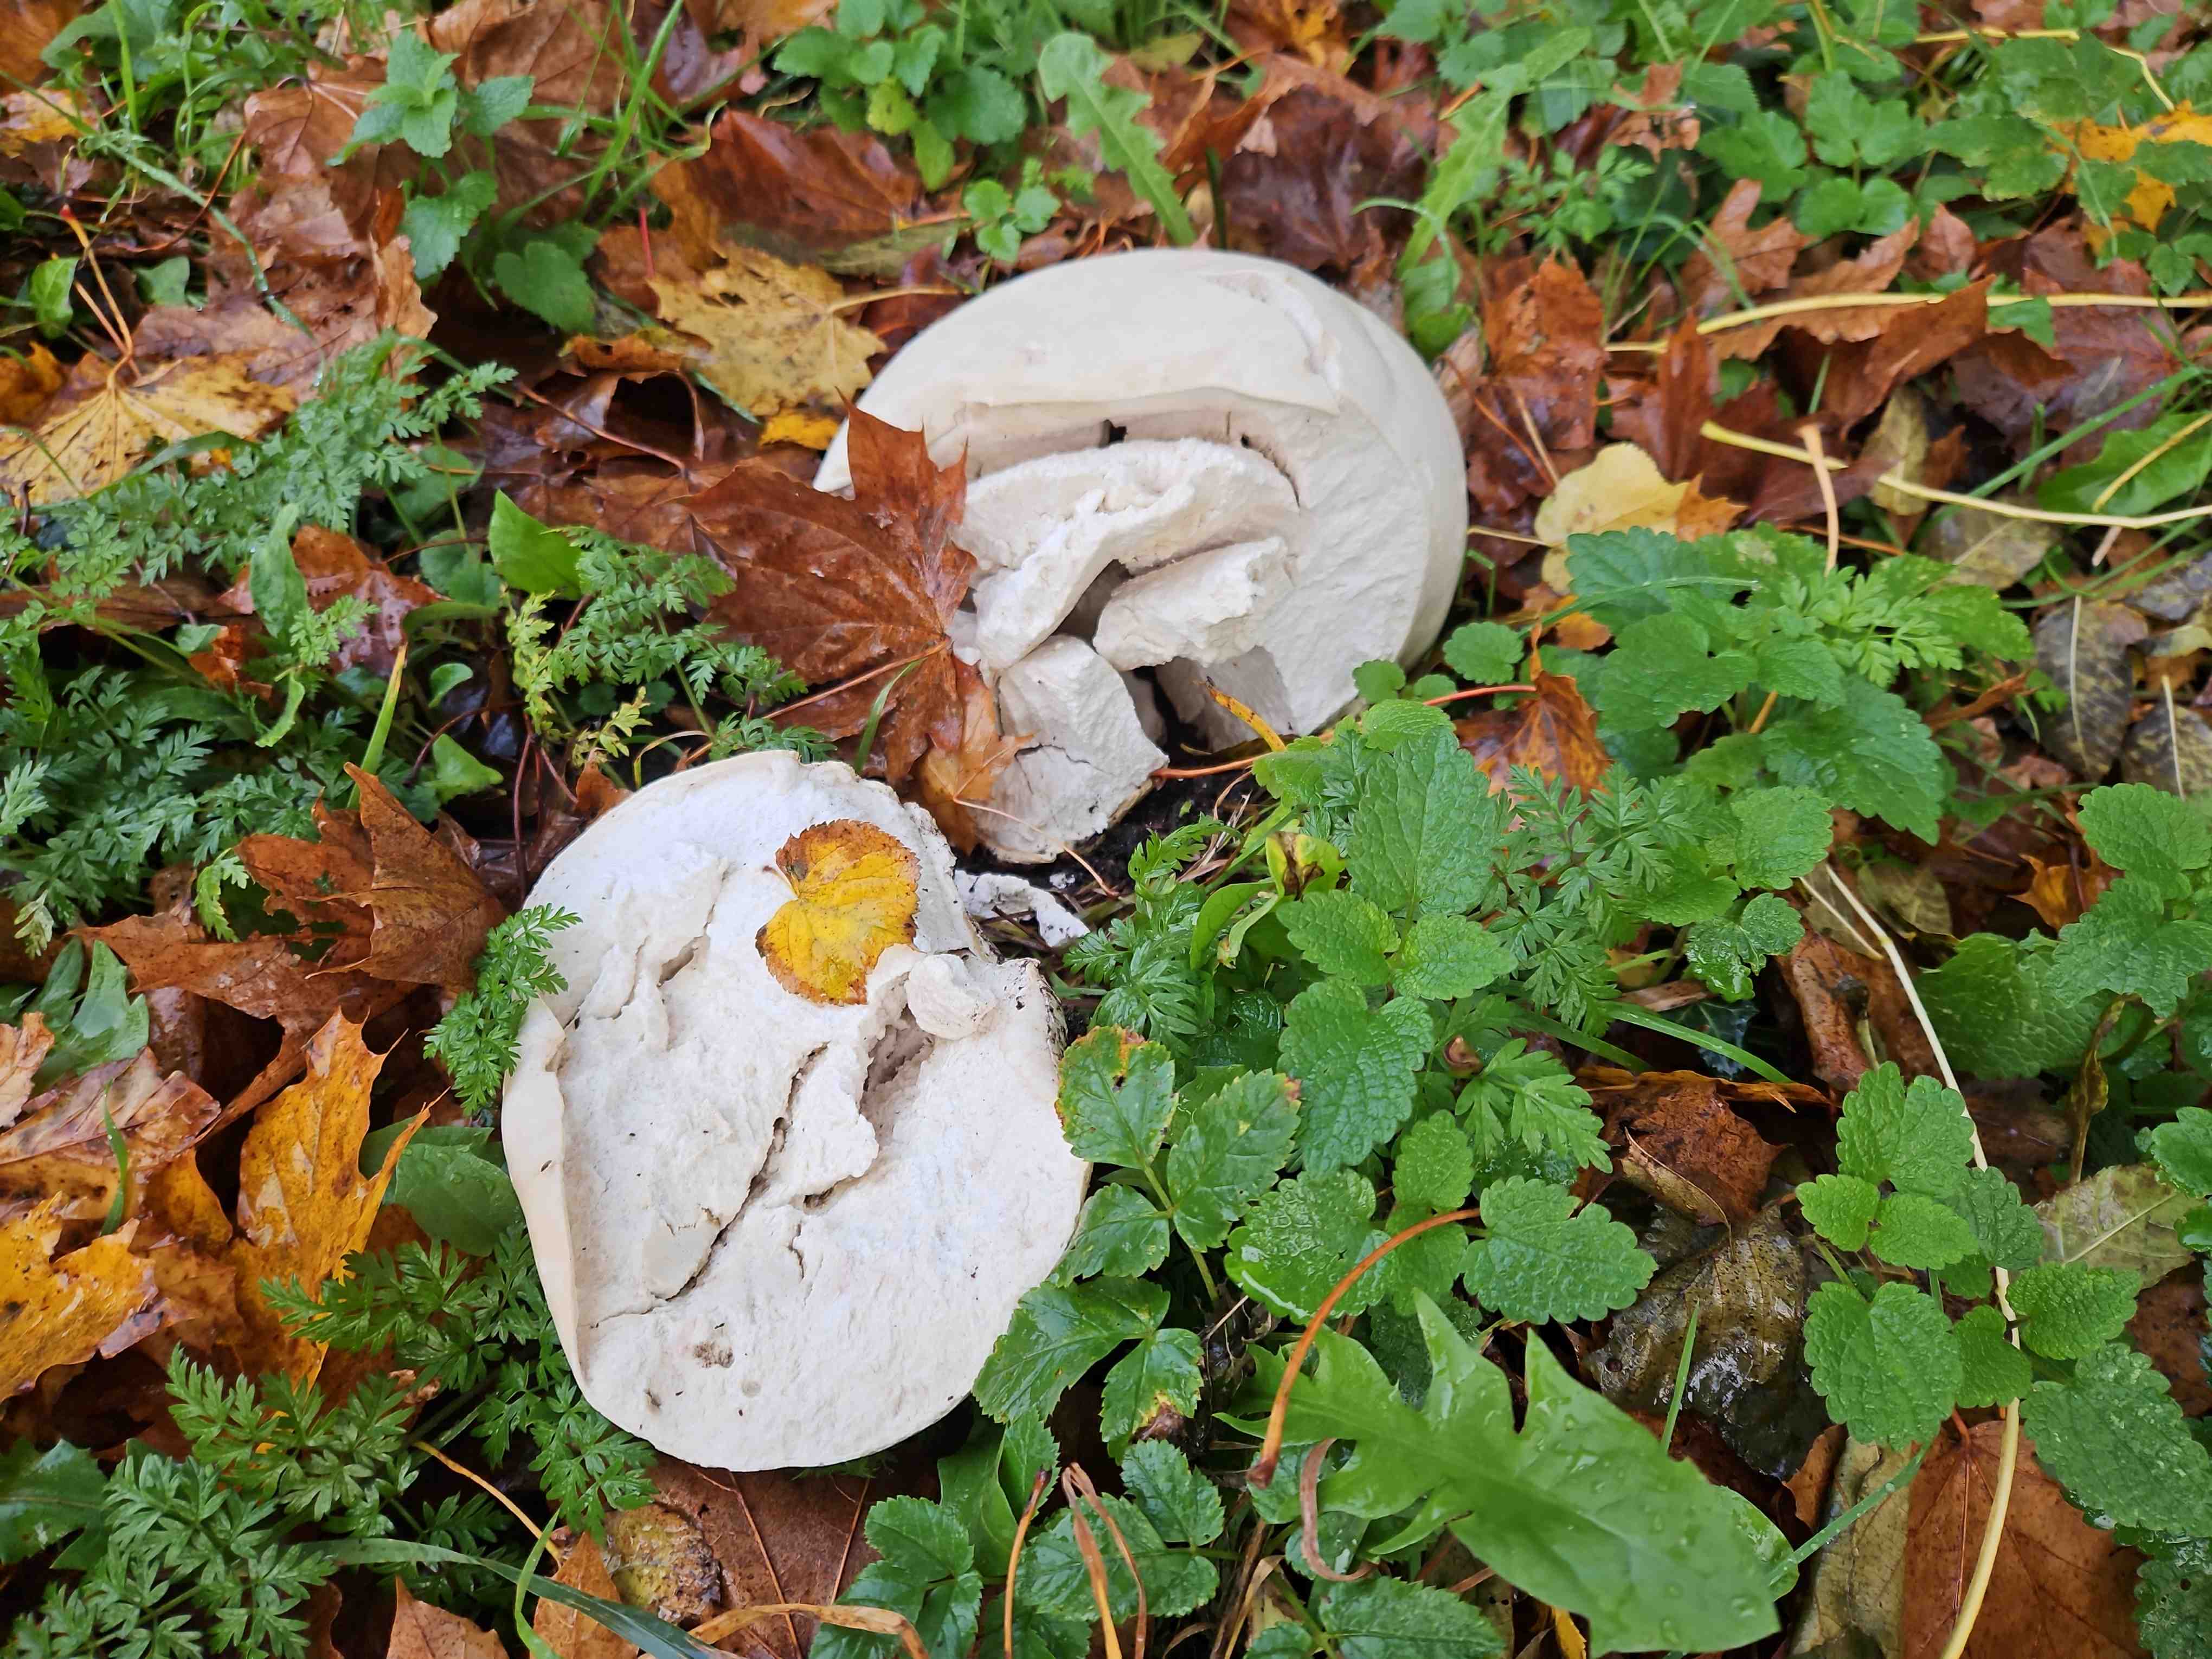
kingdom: Fungi
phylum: Basidiomycota
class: Agaricomycetes
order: Agaricales
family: Lycoperdaceae
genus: Calvatia
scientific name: Calvatia gigantea
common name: kæmpestøvbold
